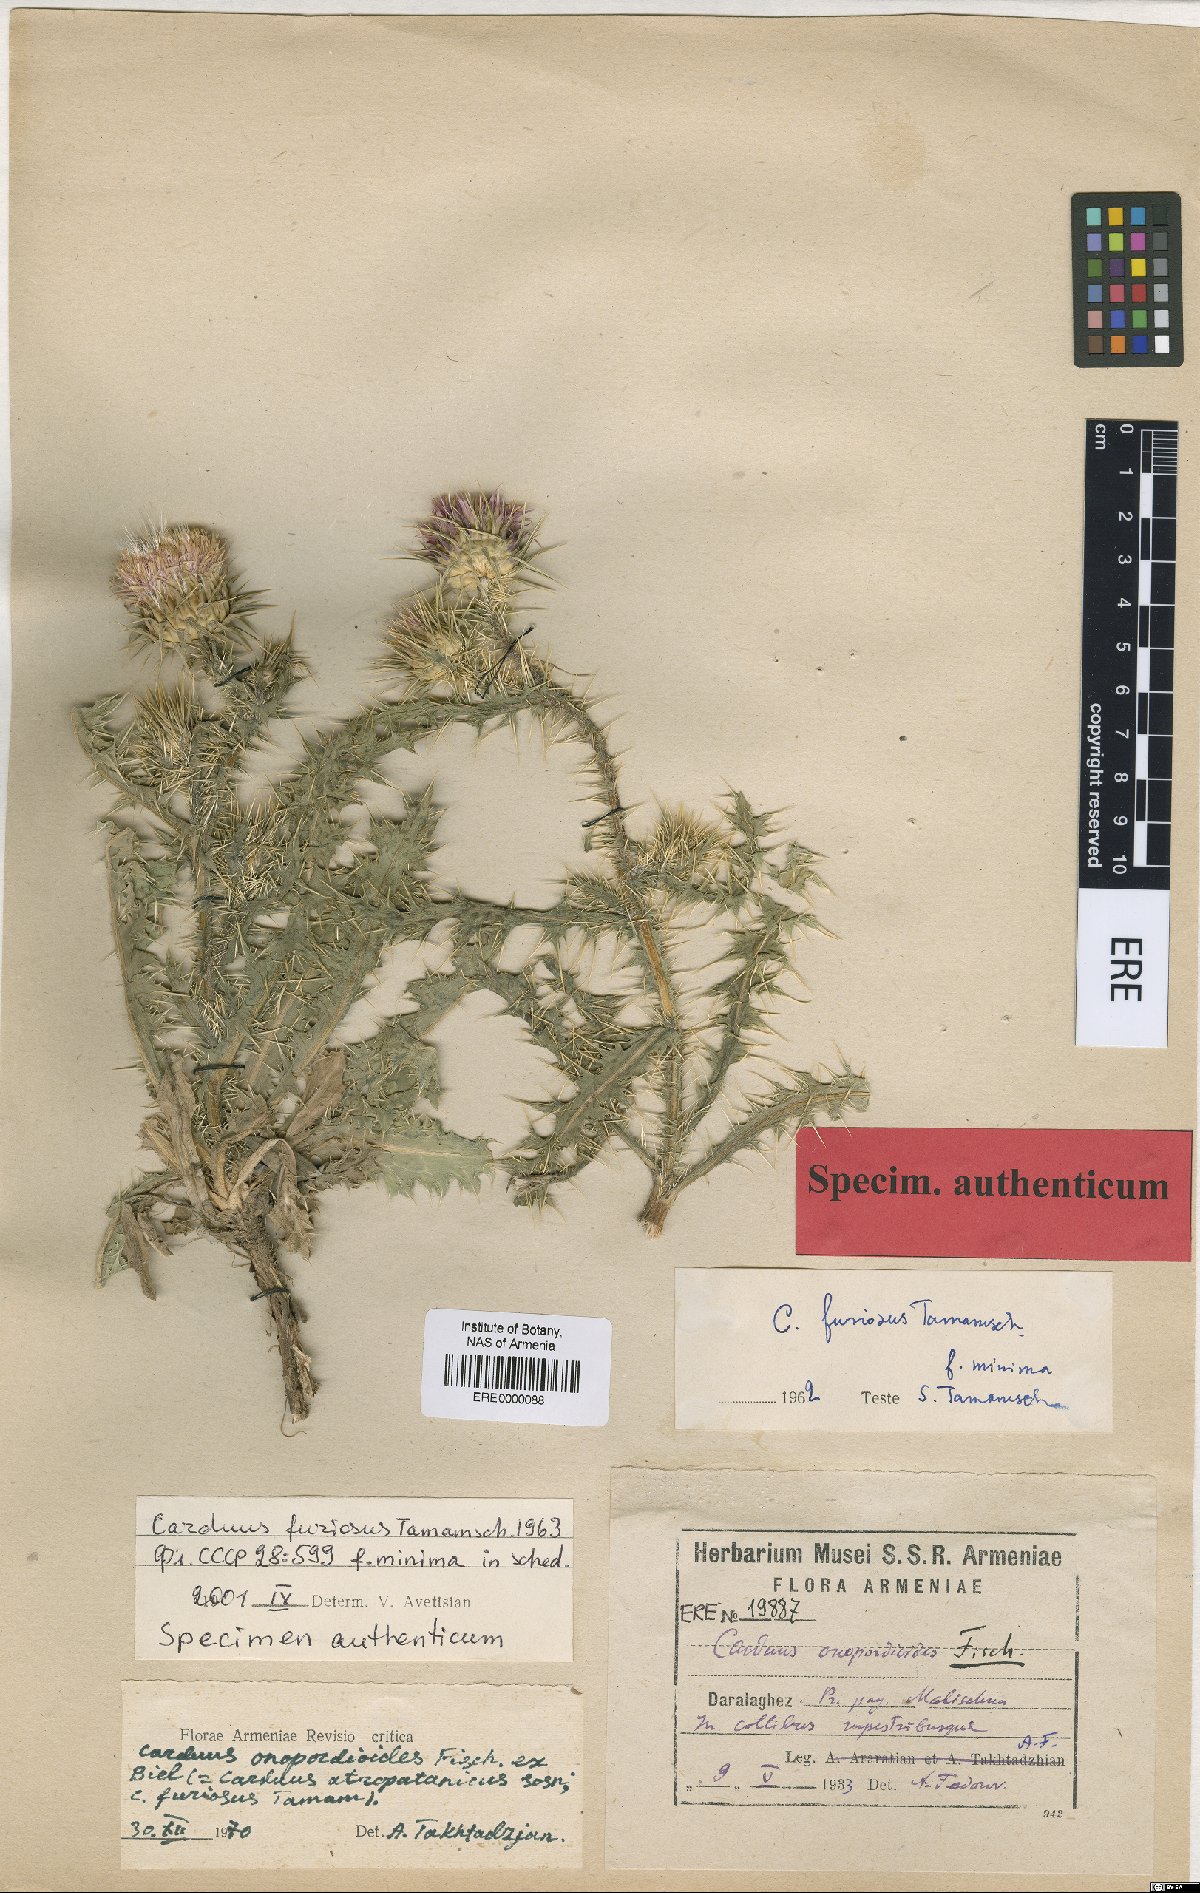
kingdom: Plantae
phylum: Tracheophyta
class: Magnoliopsida
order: Asterales
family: Asteraceae
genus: Carduus
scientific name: Carduus onopordioides
